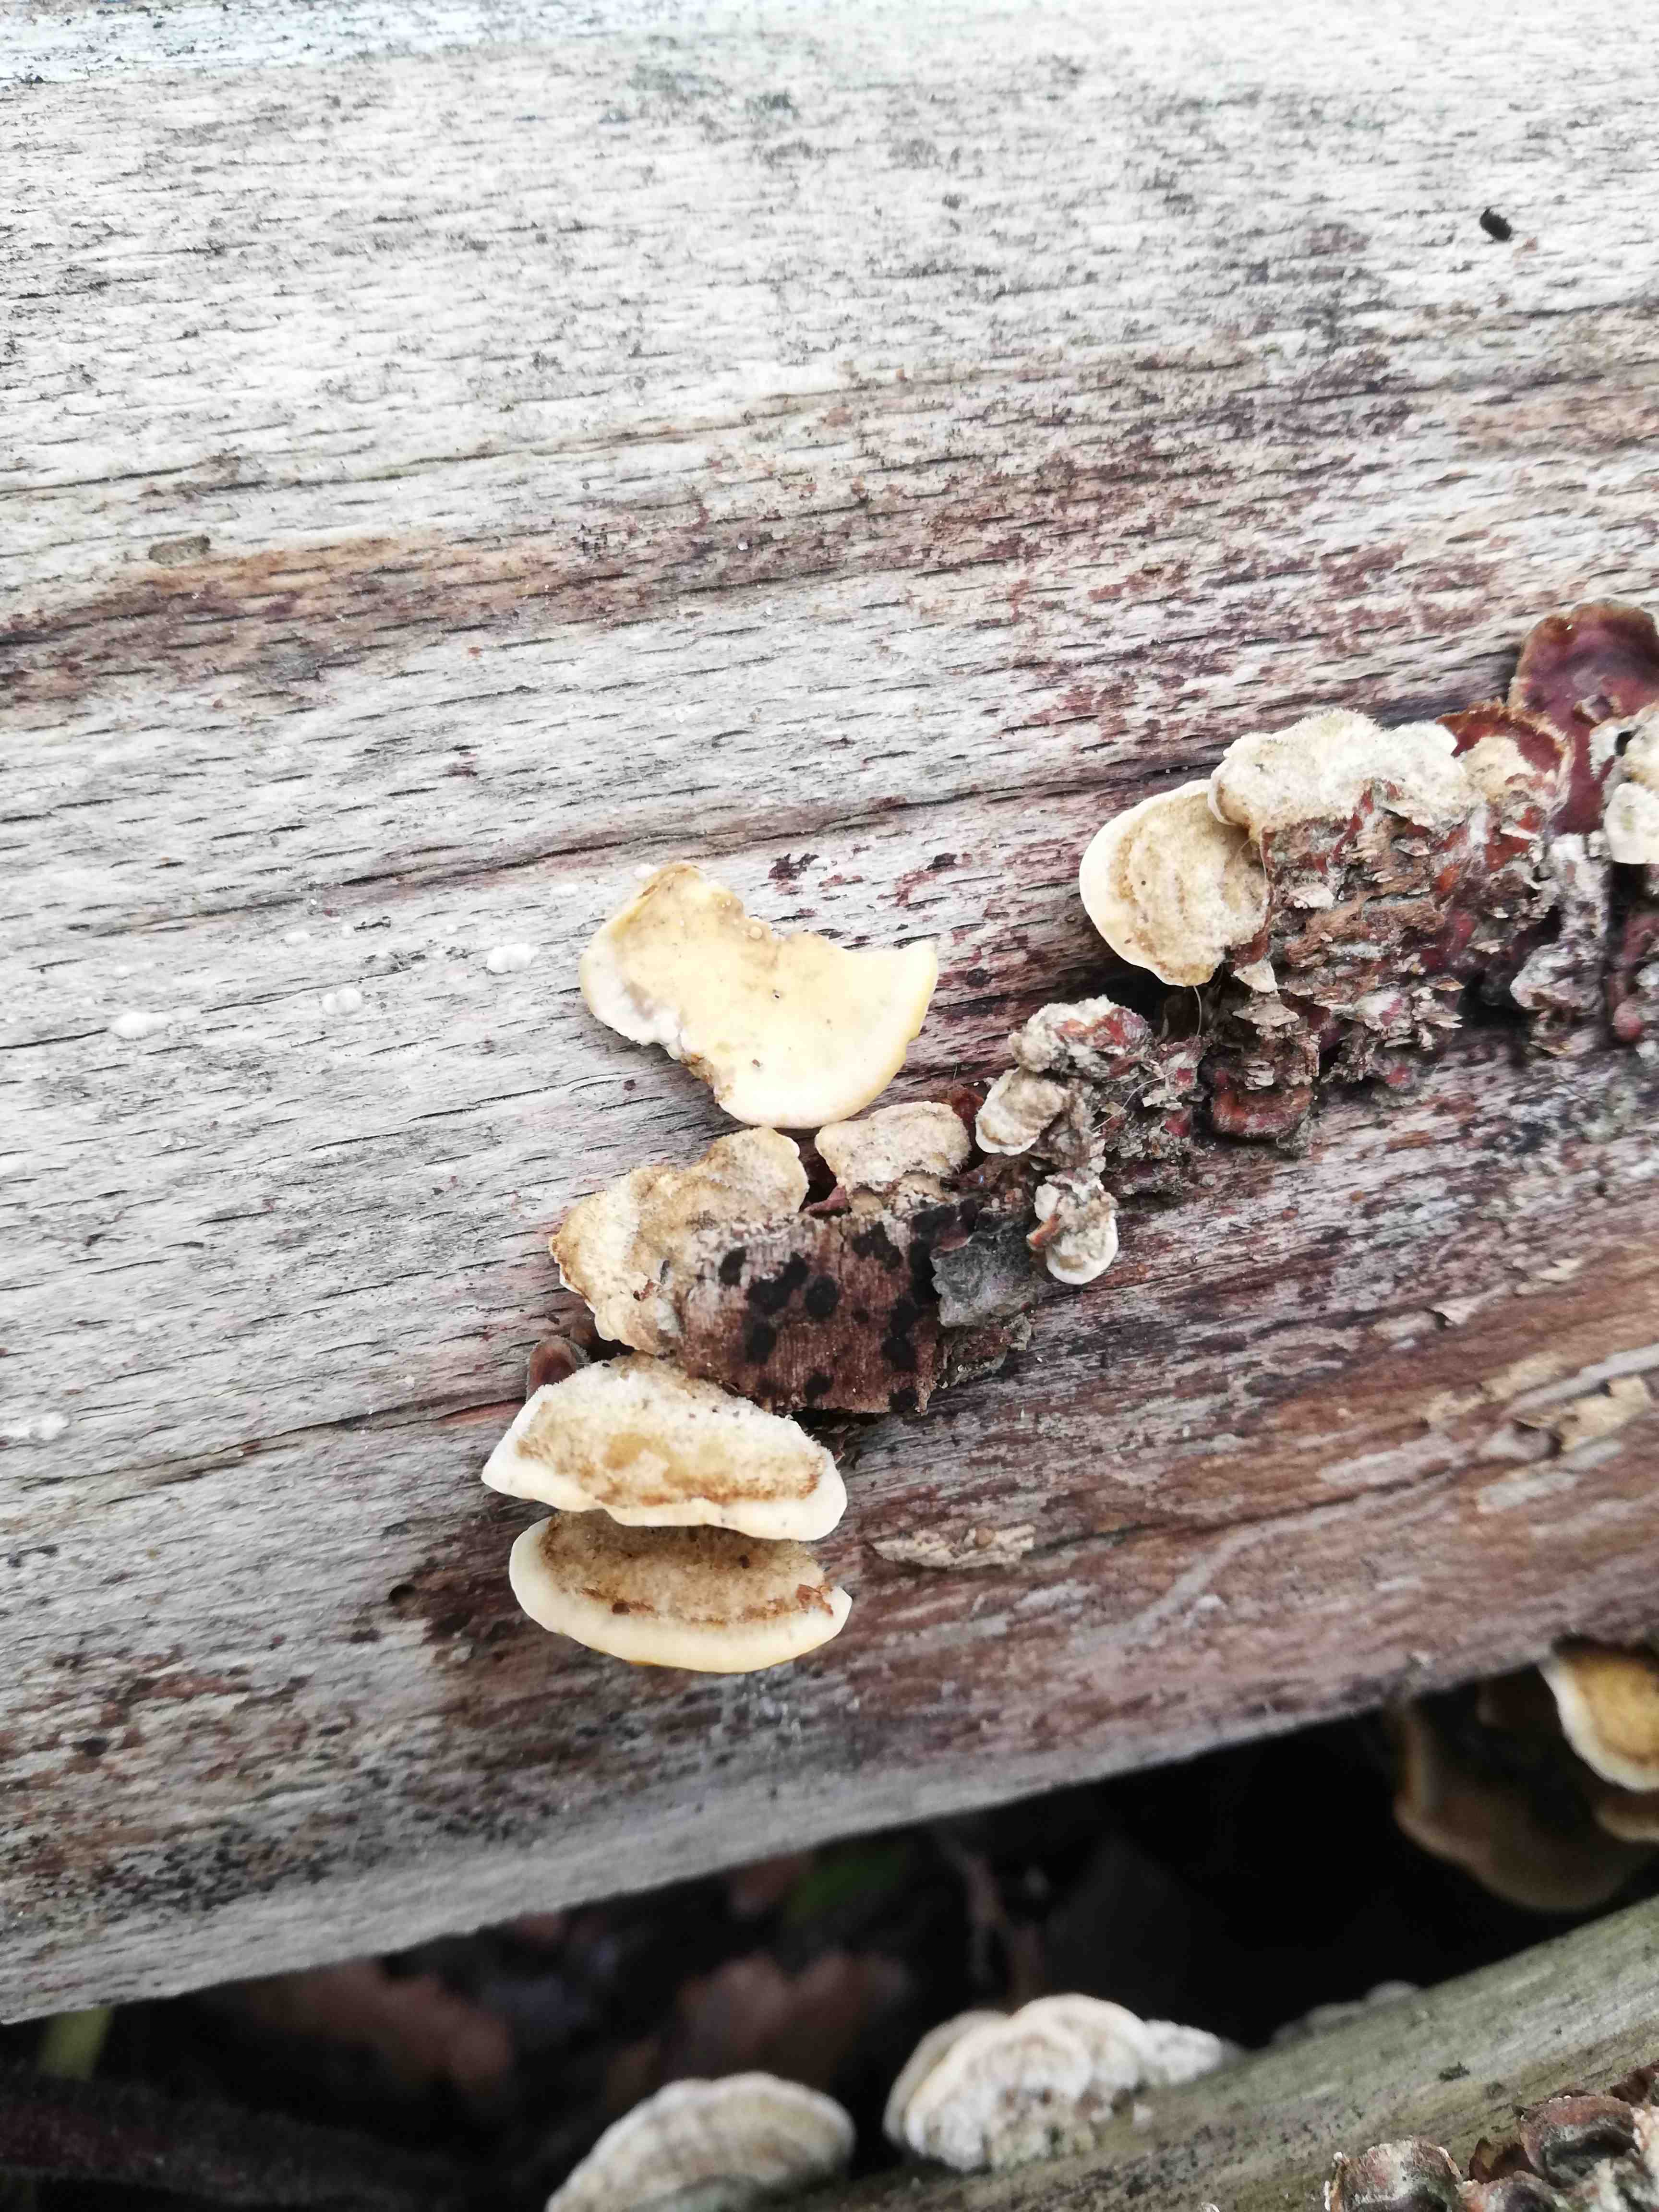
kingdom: Fungi
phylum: Basidiomycota
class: Agaricomycetes
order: Russulales
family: Stereaceae
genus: Stereum
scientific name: Stereum hirsutum
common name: håret lædersvamp
